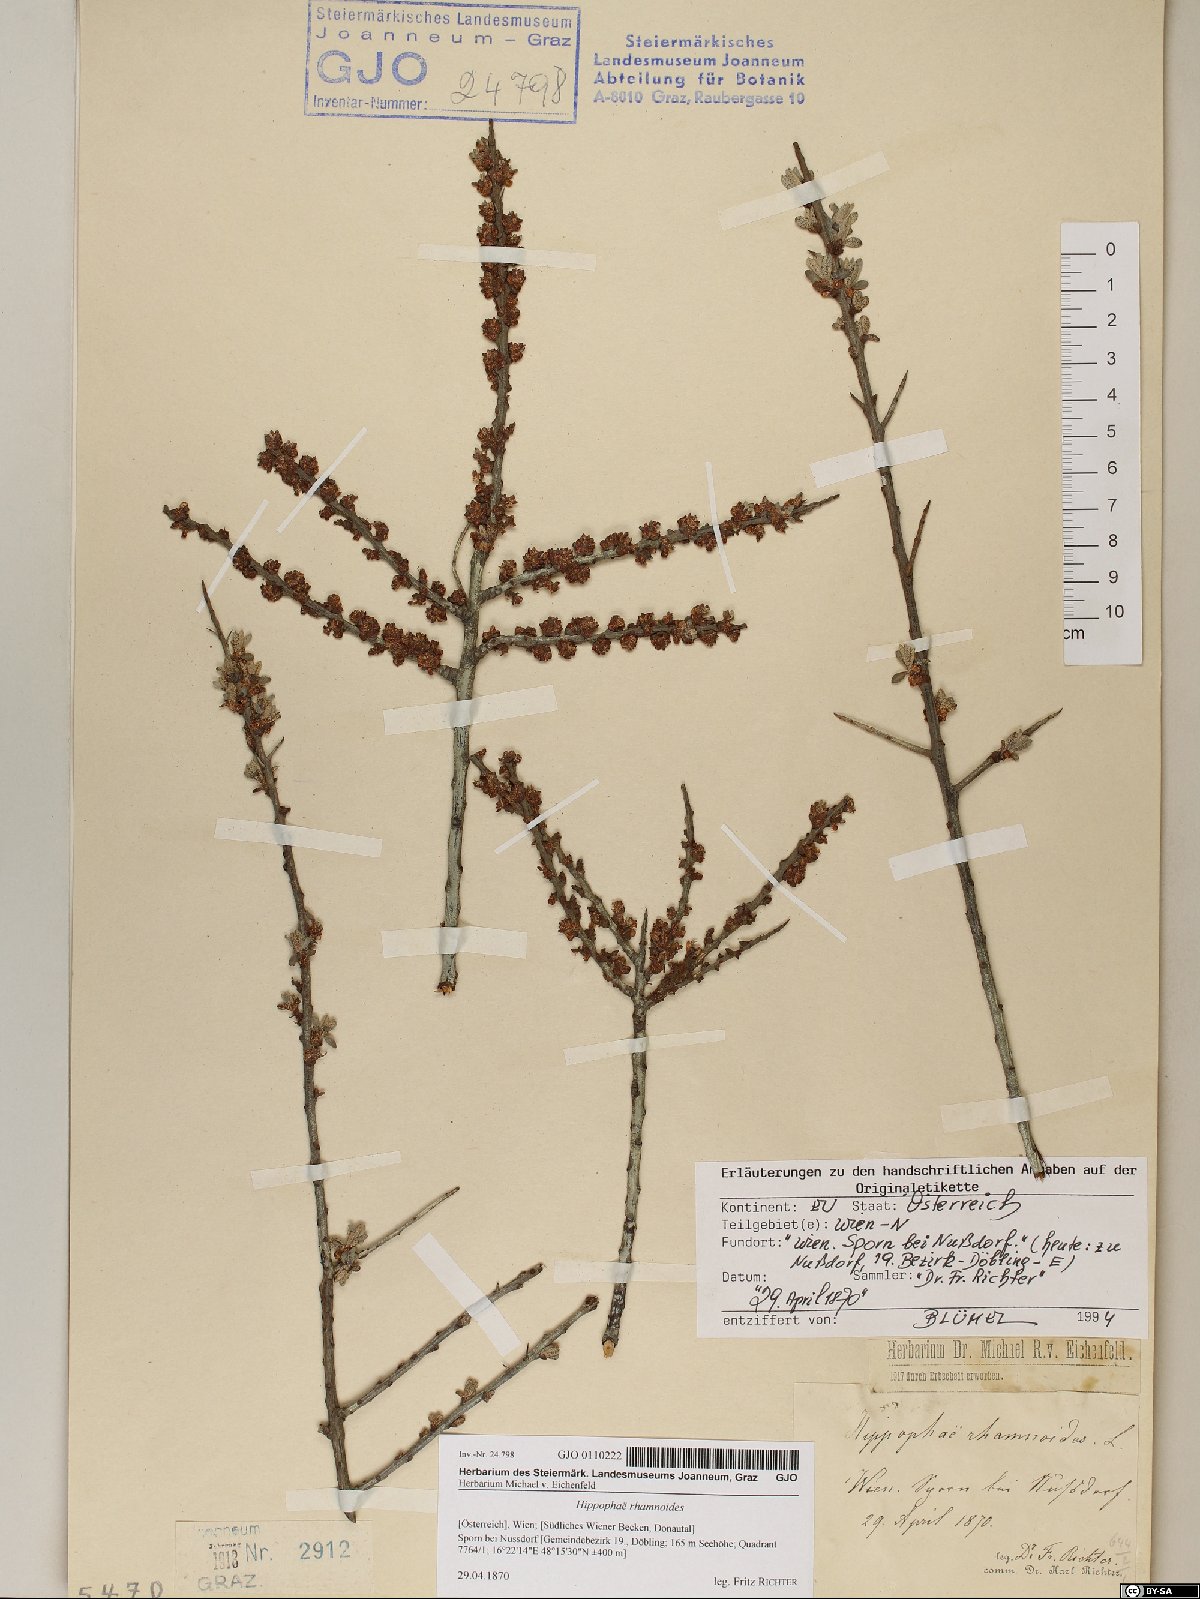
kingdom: Plantae
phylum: Tracheophyta
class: Magnoliopsida
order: Rosales
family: Elaeagnaceae
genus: Hippophae
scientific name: Hippophae rhamnoides
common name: Sea-buckthorn
